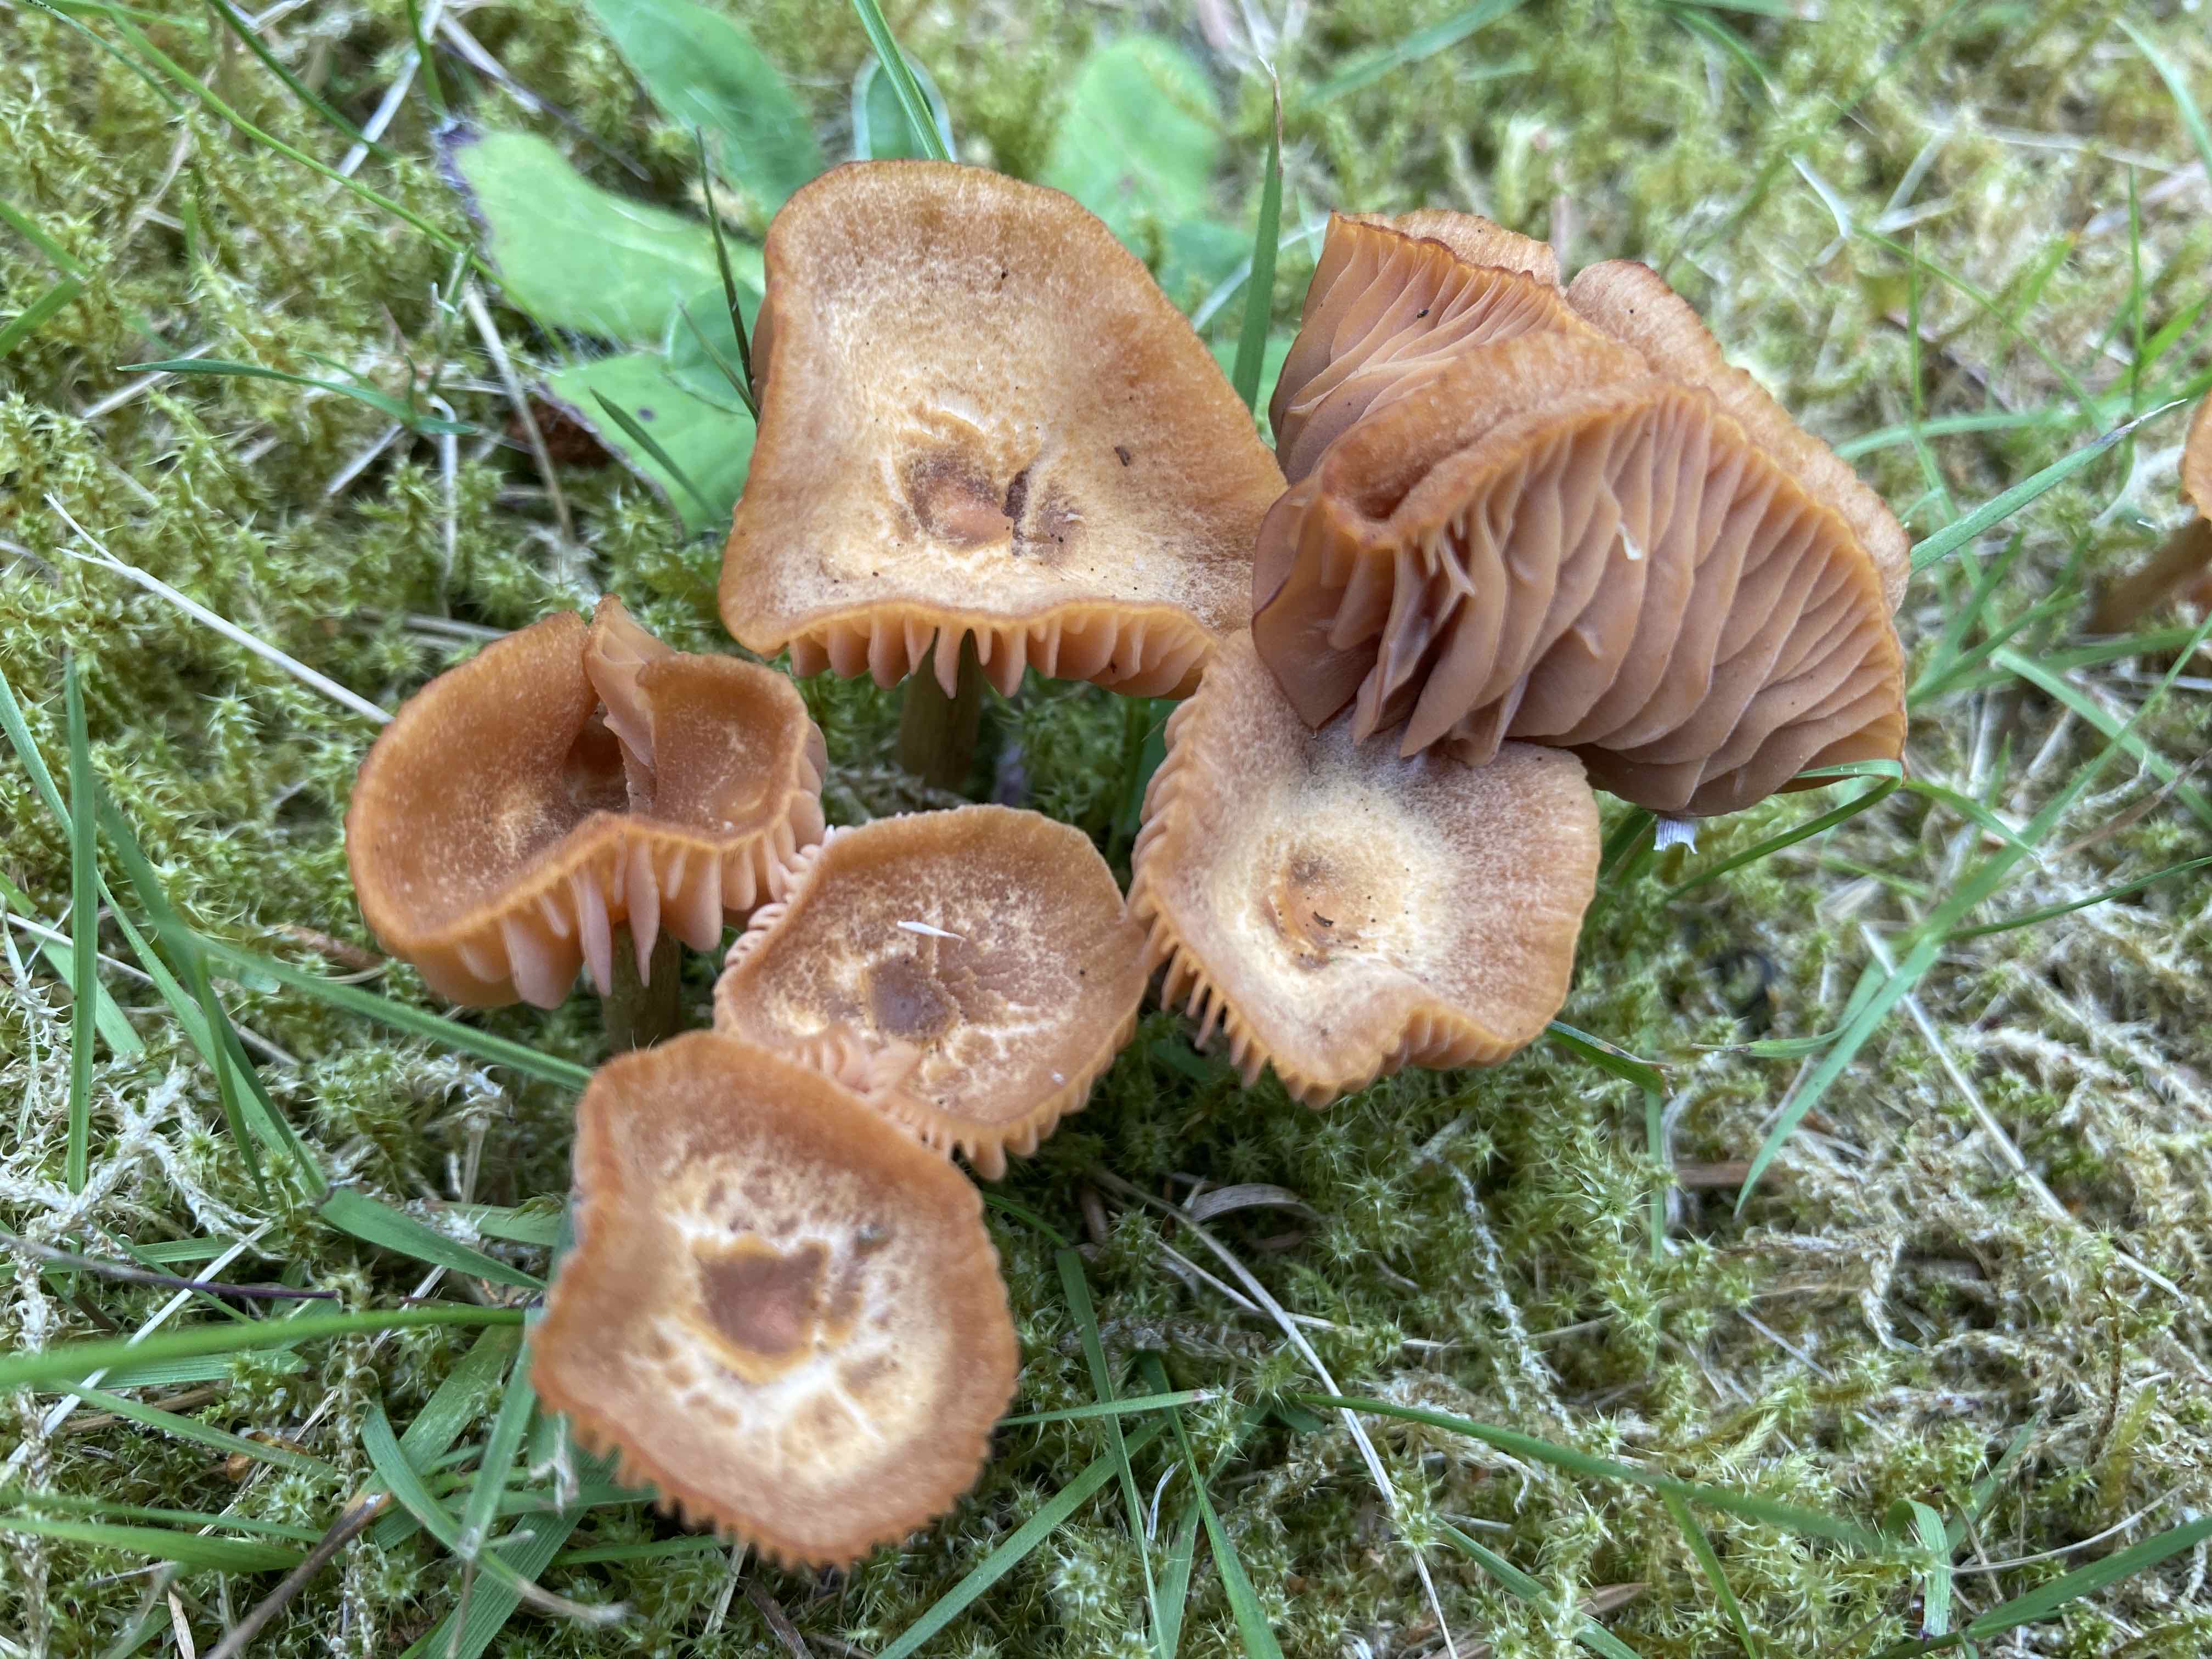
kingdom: Fungi
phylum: Basidiomycota
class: Agaricomycetes
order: Agaricales
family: Hydnangiaceae
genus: Laccaria
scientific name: Laccaria
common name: ametysthat
